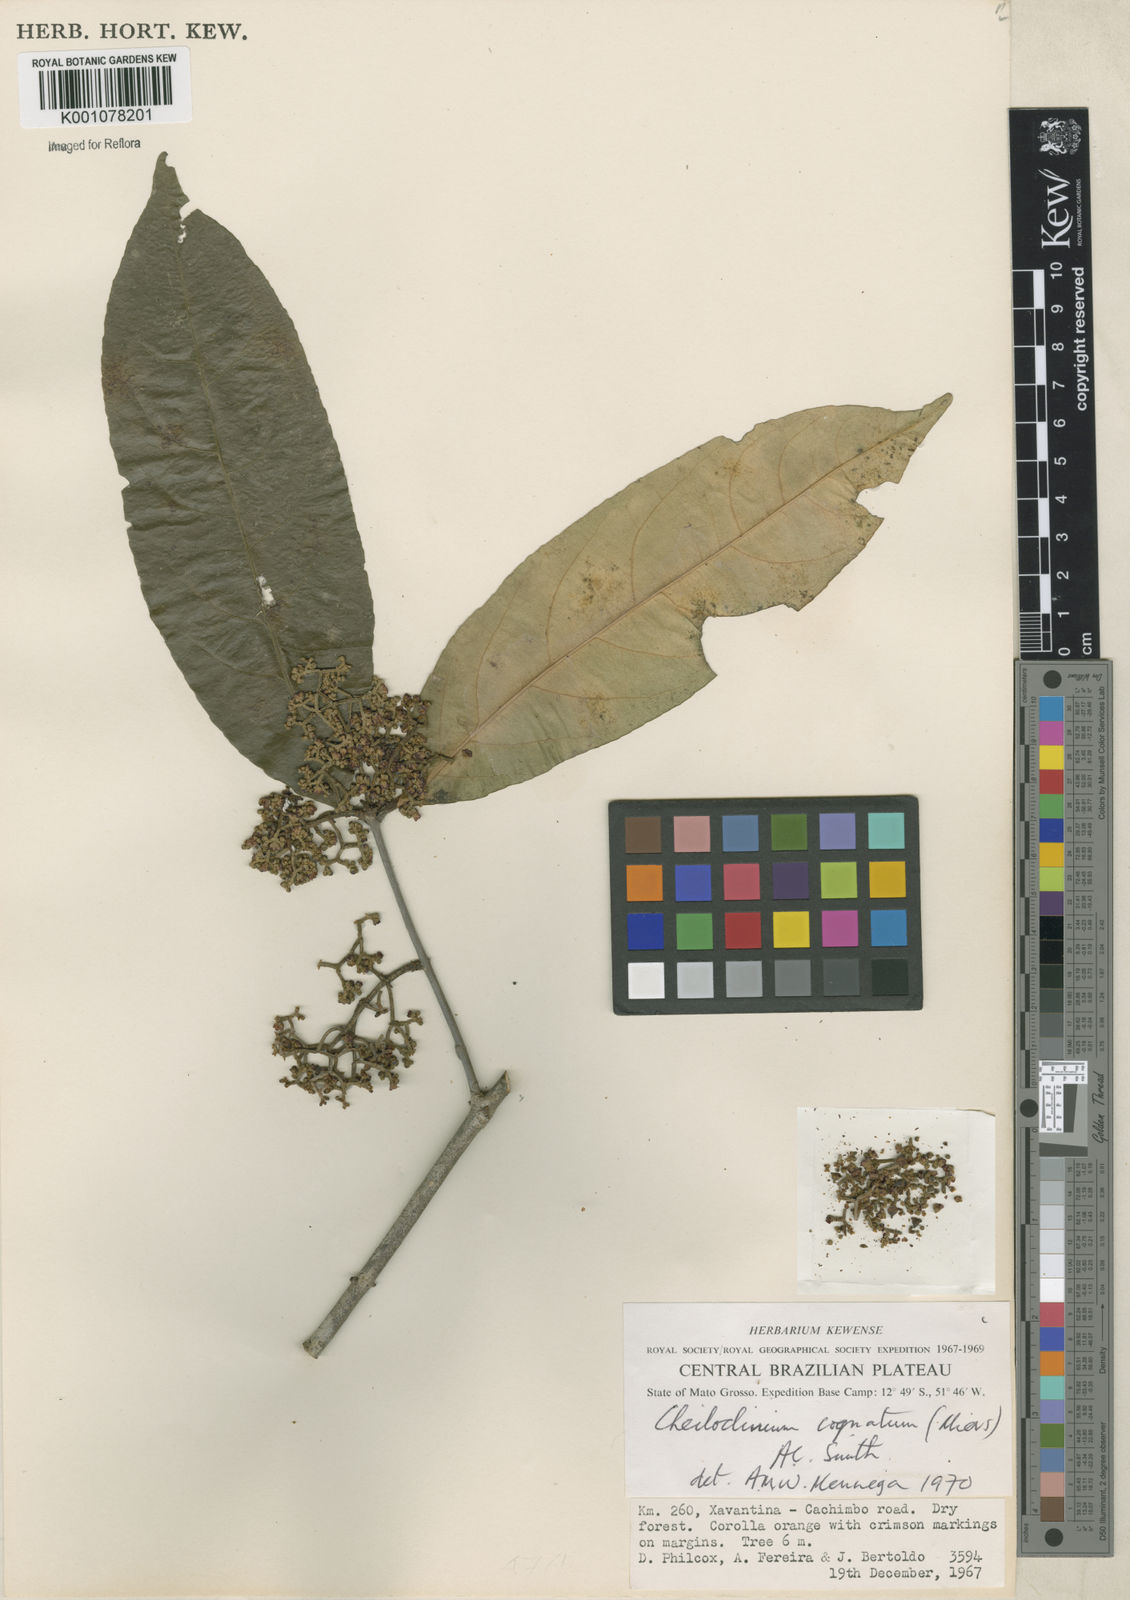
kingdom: Plantae
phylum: Tracheophyta
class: Magnoliopsida
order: Celastrales
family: Celastraceae
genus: Cheiloclinium
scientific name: Cheiloclinium cognatum
